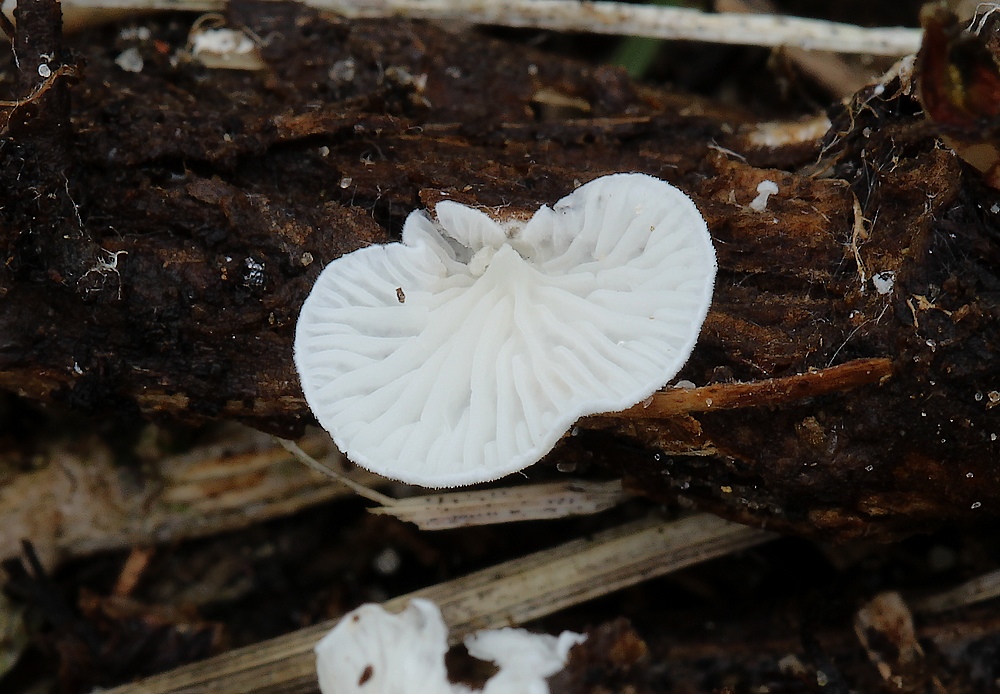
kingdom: Fungi
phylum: Basidiomycota
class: Agaricomycetes
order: Agaricales
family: Entolomataceae
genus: Clitopilus
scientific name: Clitopilus hobsonii
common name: Miller's oysterling
